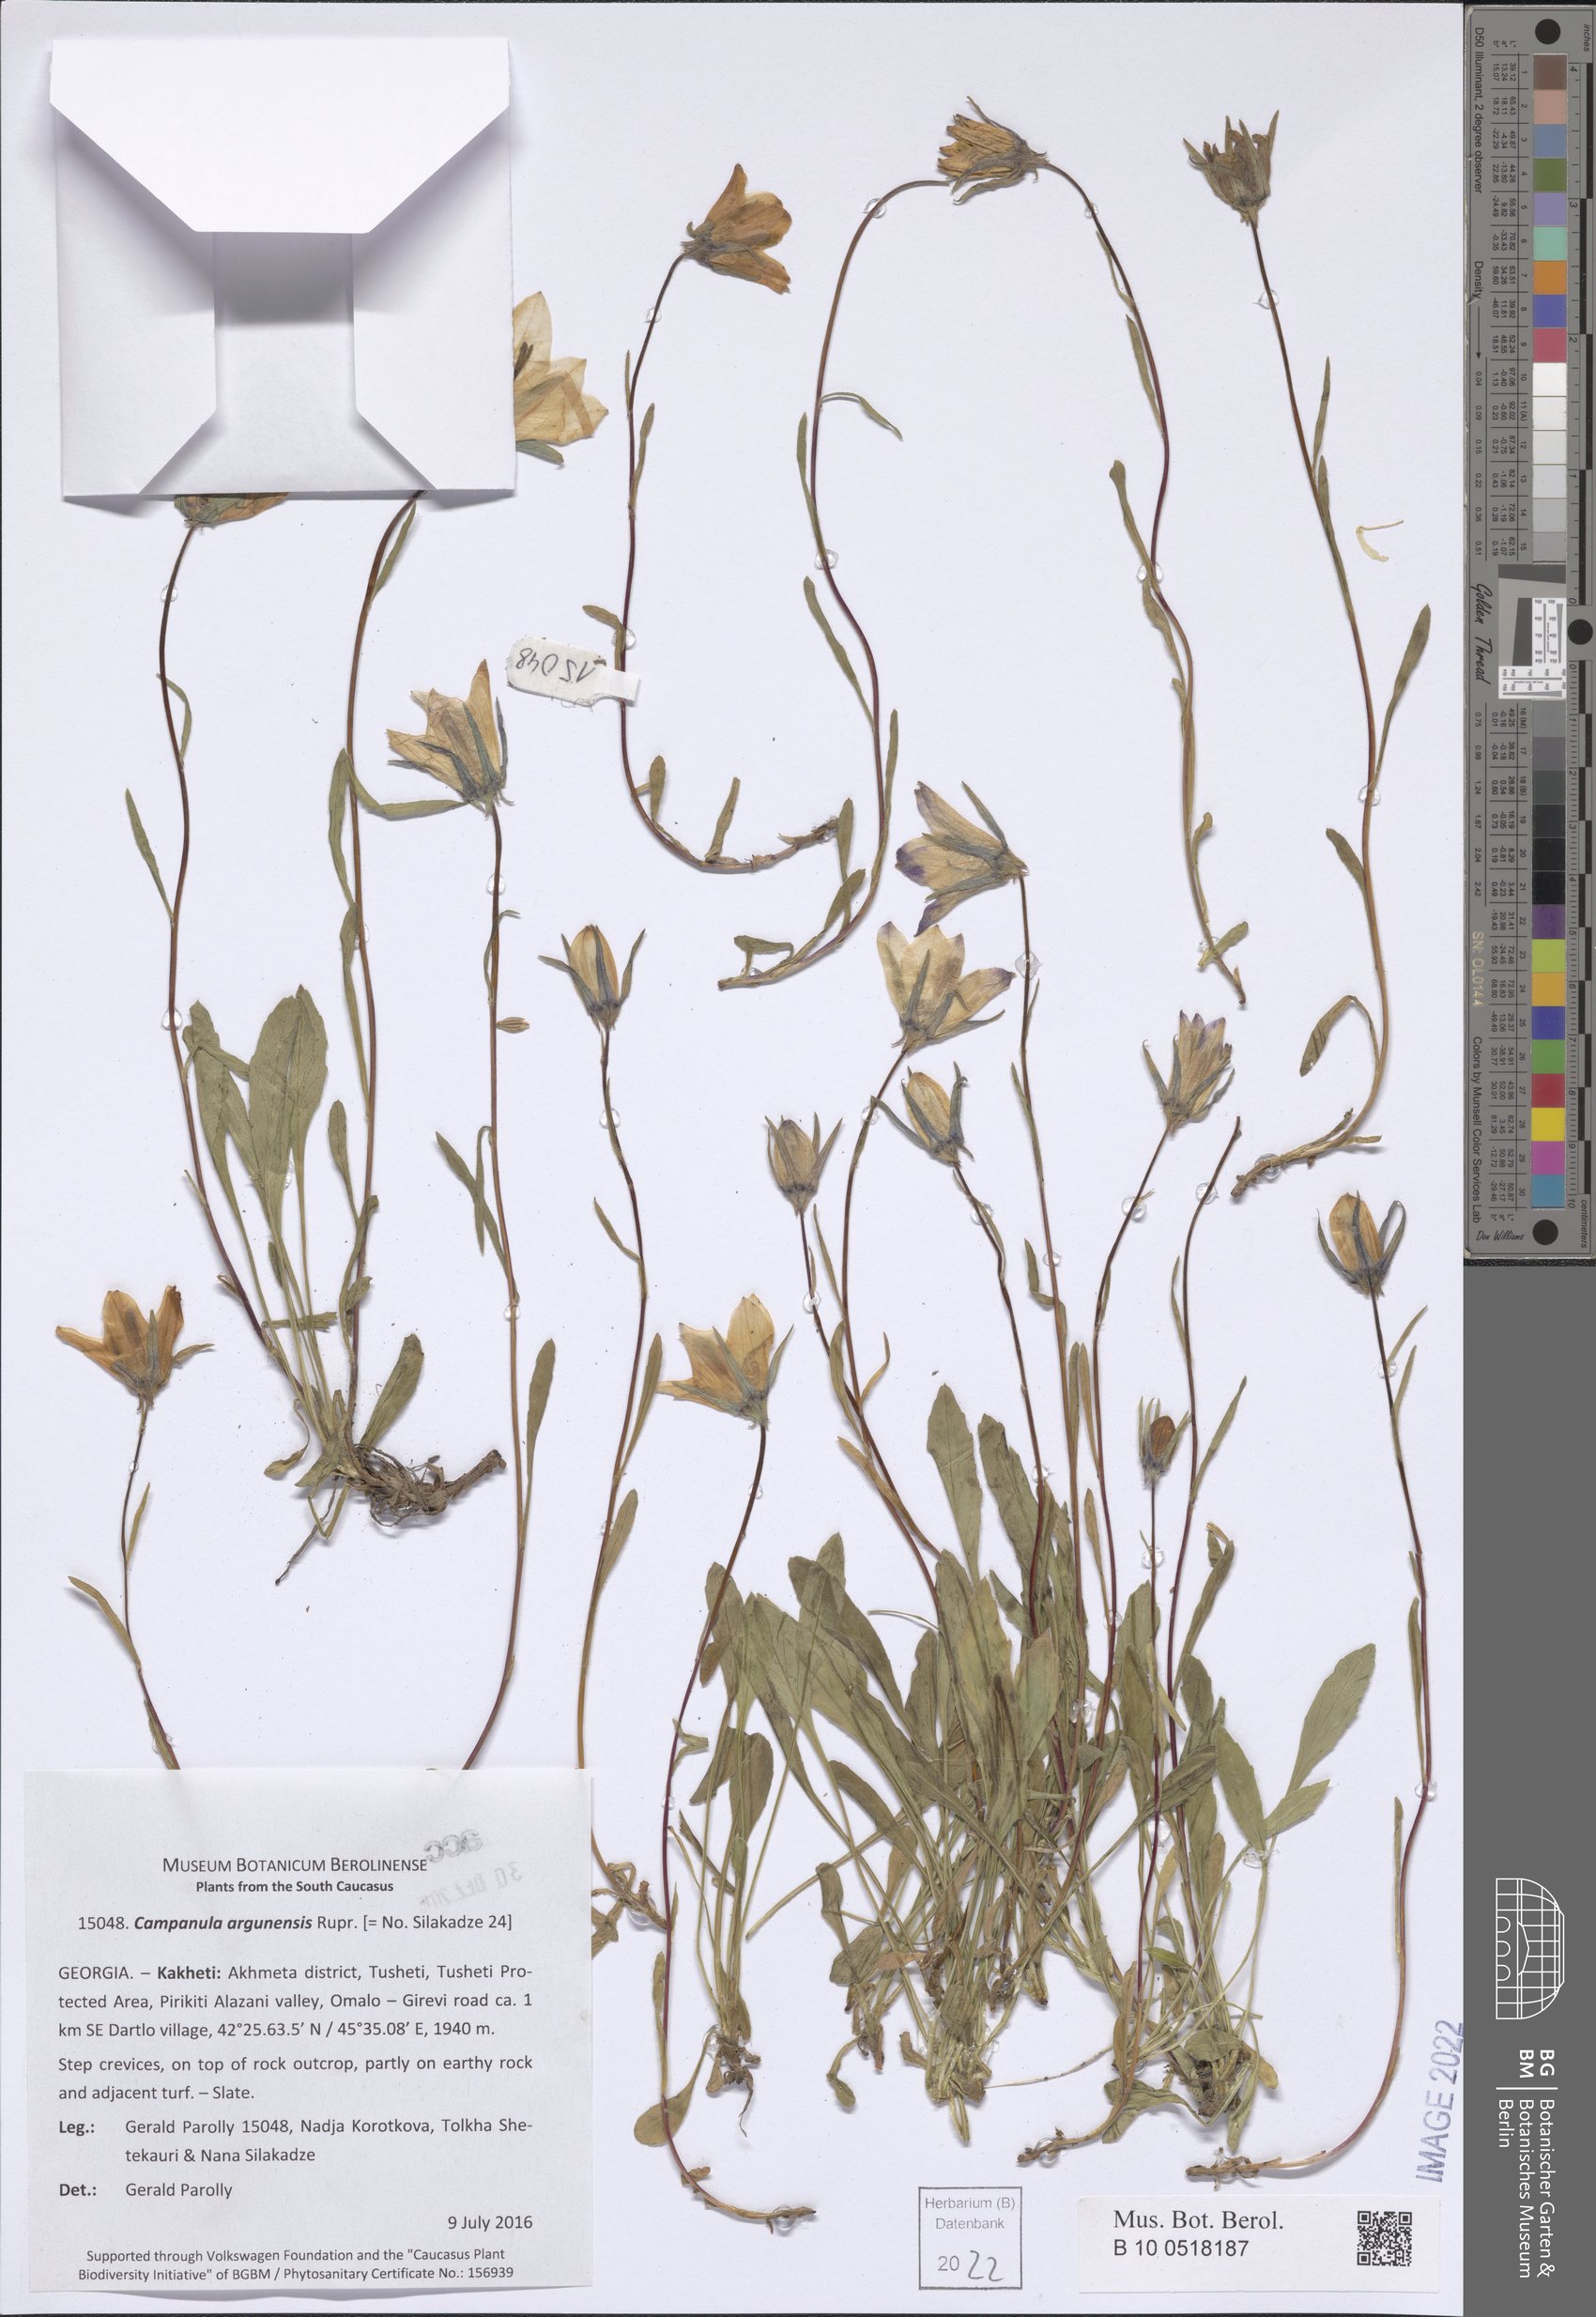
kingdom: Plantae
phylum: Tracheophyta
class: Magnoliopsida
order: Asterales
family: Campanulaceae
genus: Campanula
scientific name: Campanula saxifraga
